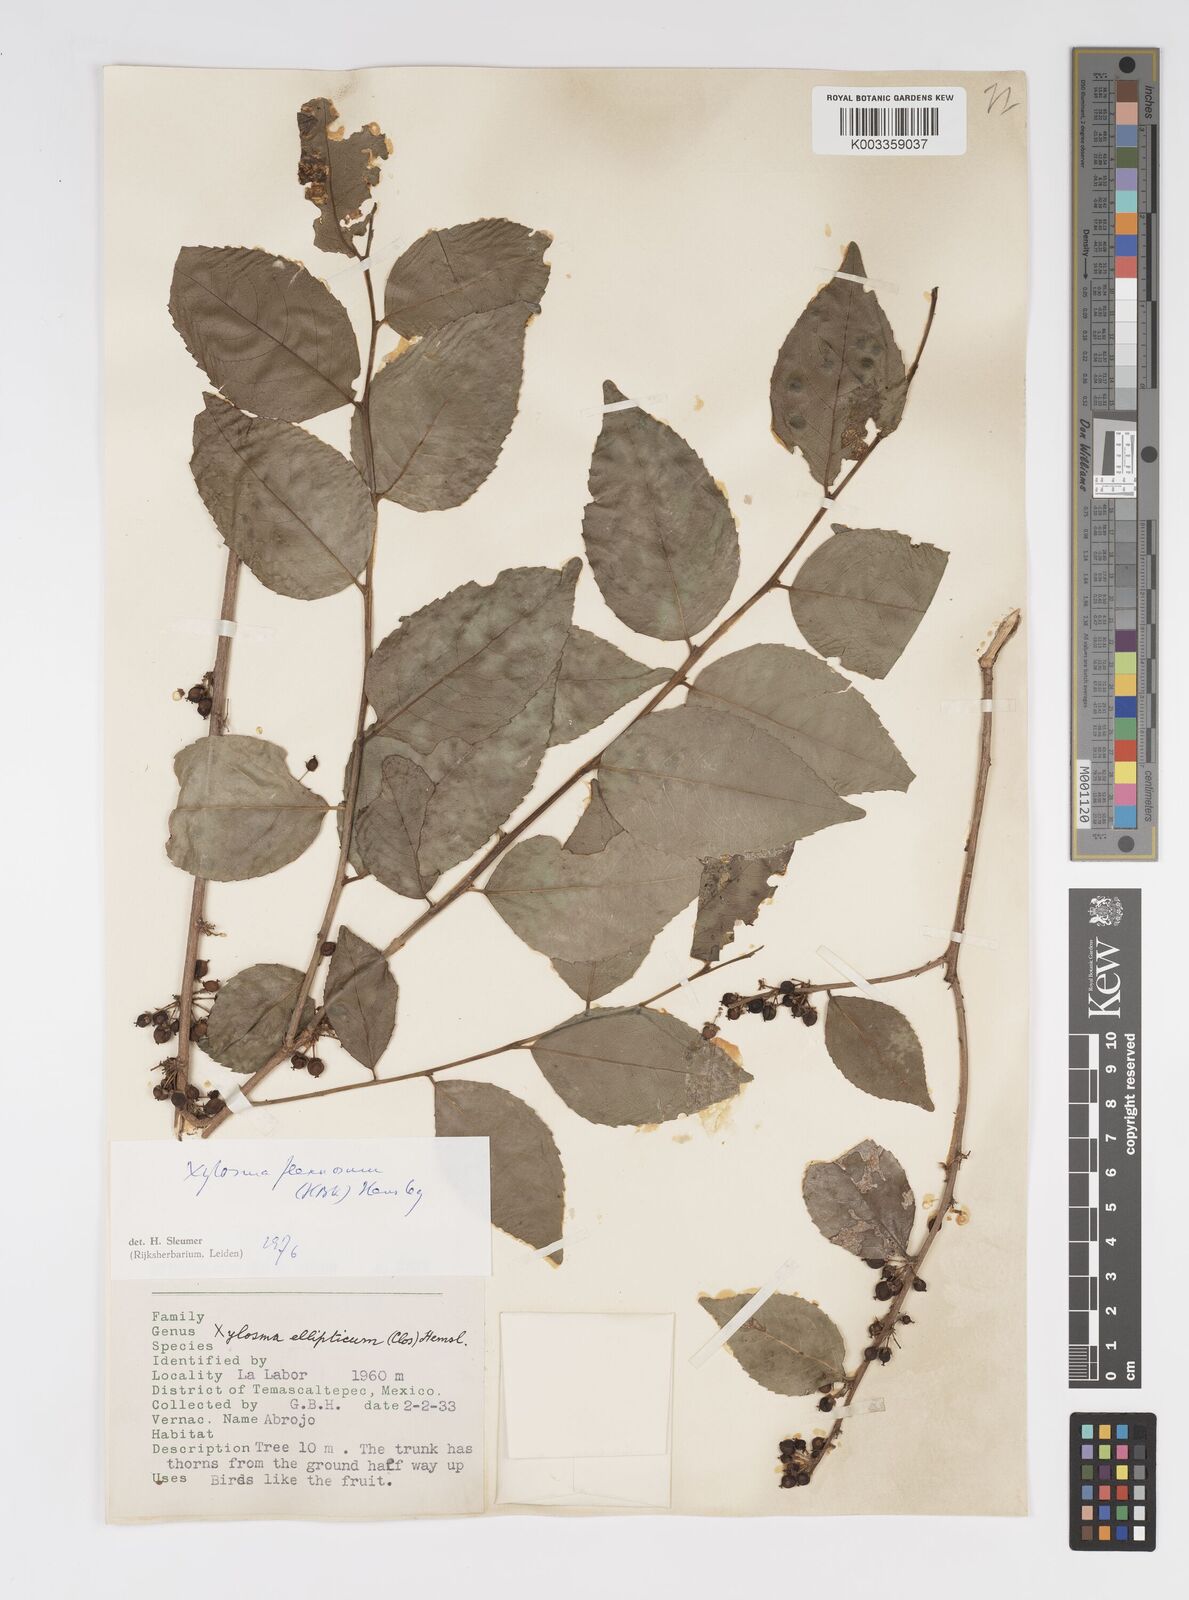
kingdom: Plantae
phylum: Tracheophyta
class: Magnoliopsida
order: Malpighiales
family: Salicaceae
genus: Xylosma
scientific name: Xylosma flexuosa
